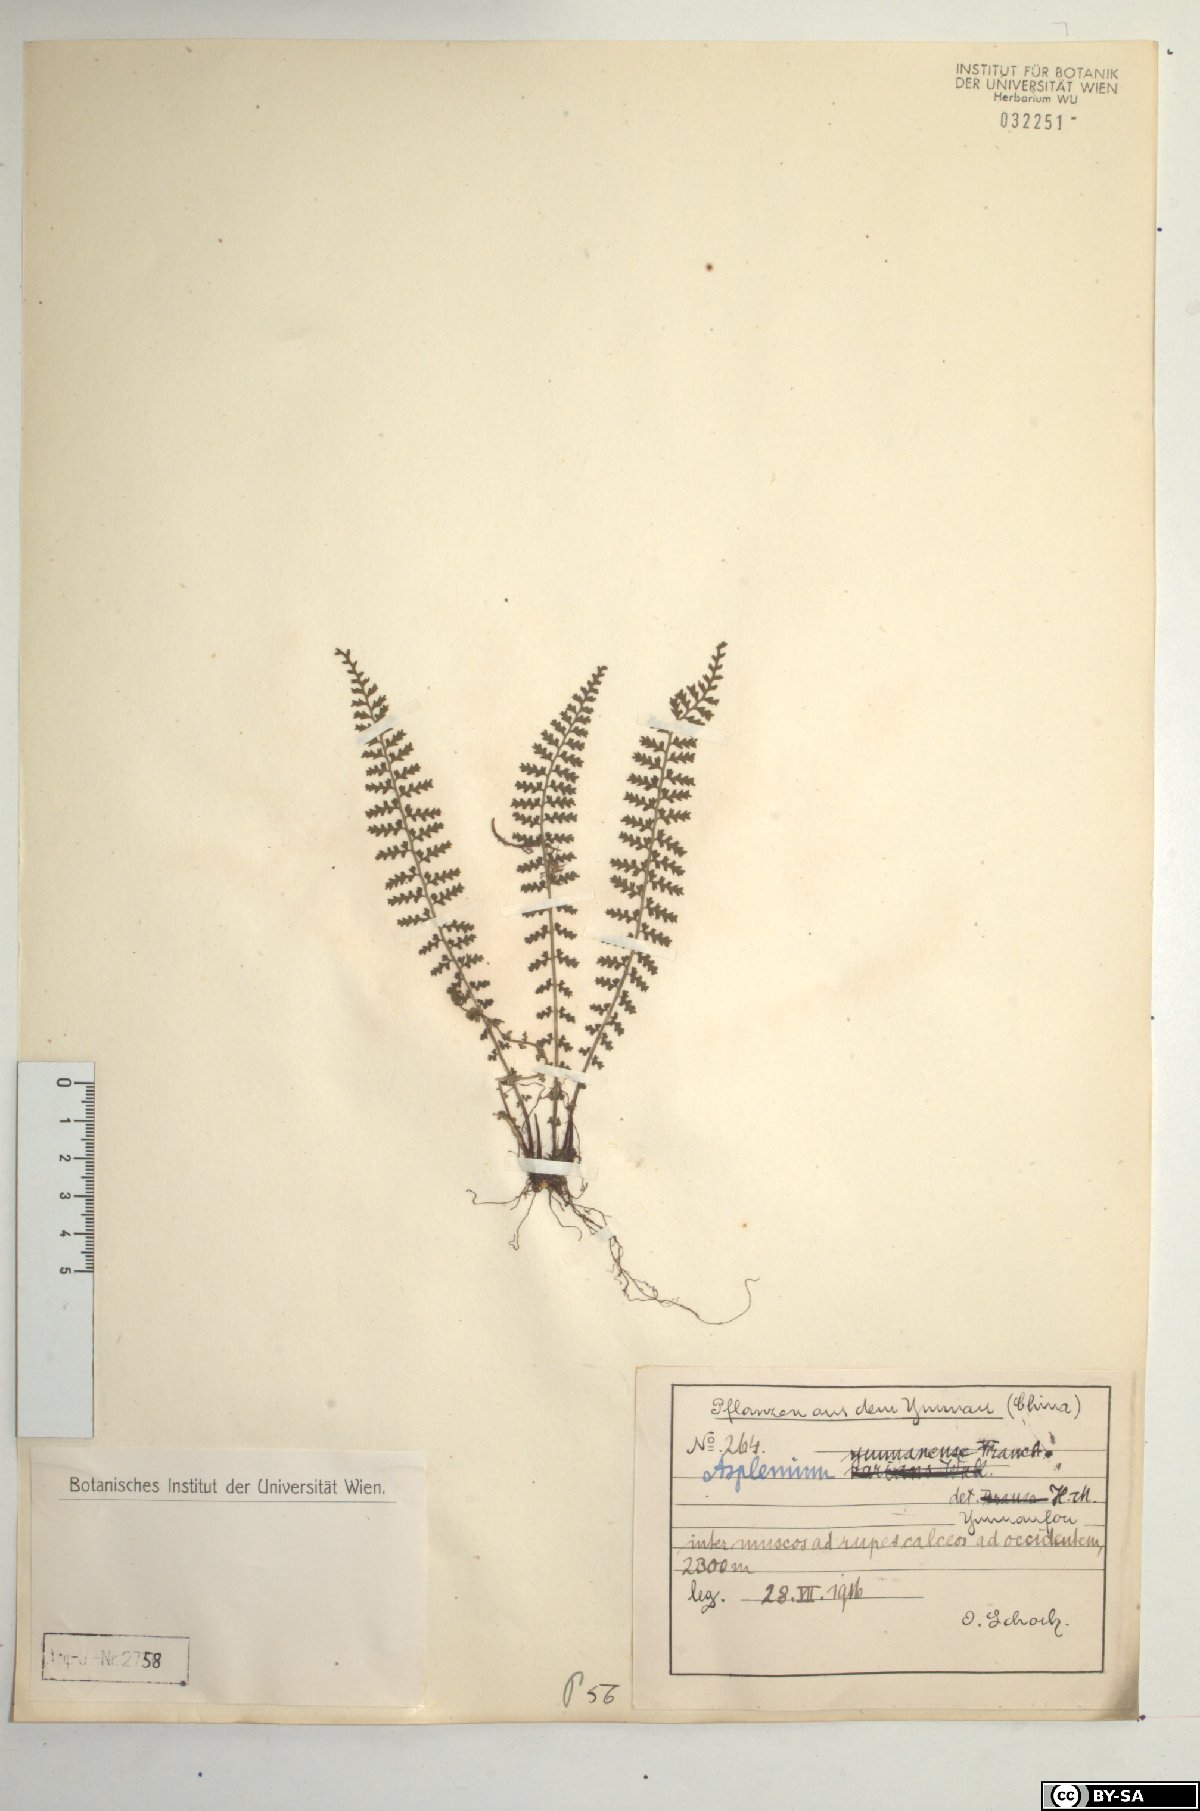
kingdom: Plantae
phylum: Tracheophyta
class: Polypodiopsida
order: Polypodiales
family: Aspleniaceae
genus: Asplenium
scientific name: Asplenium exiguum
